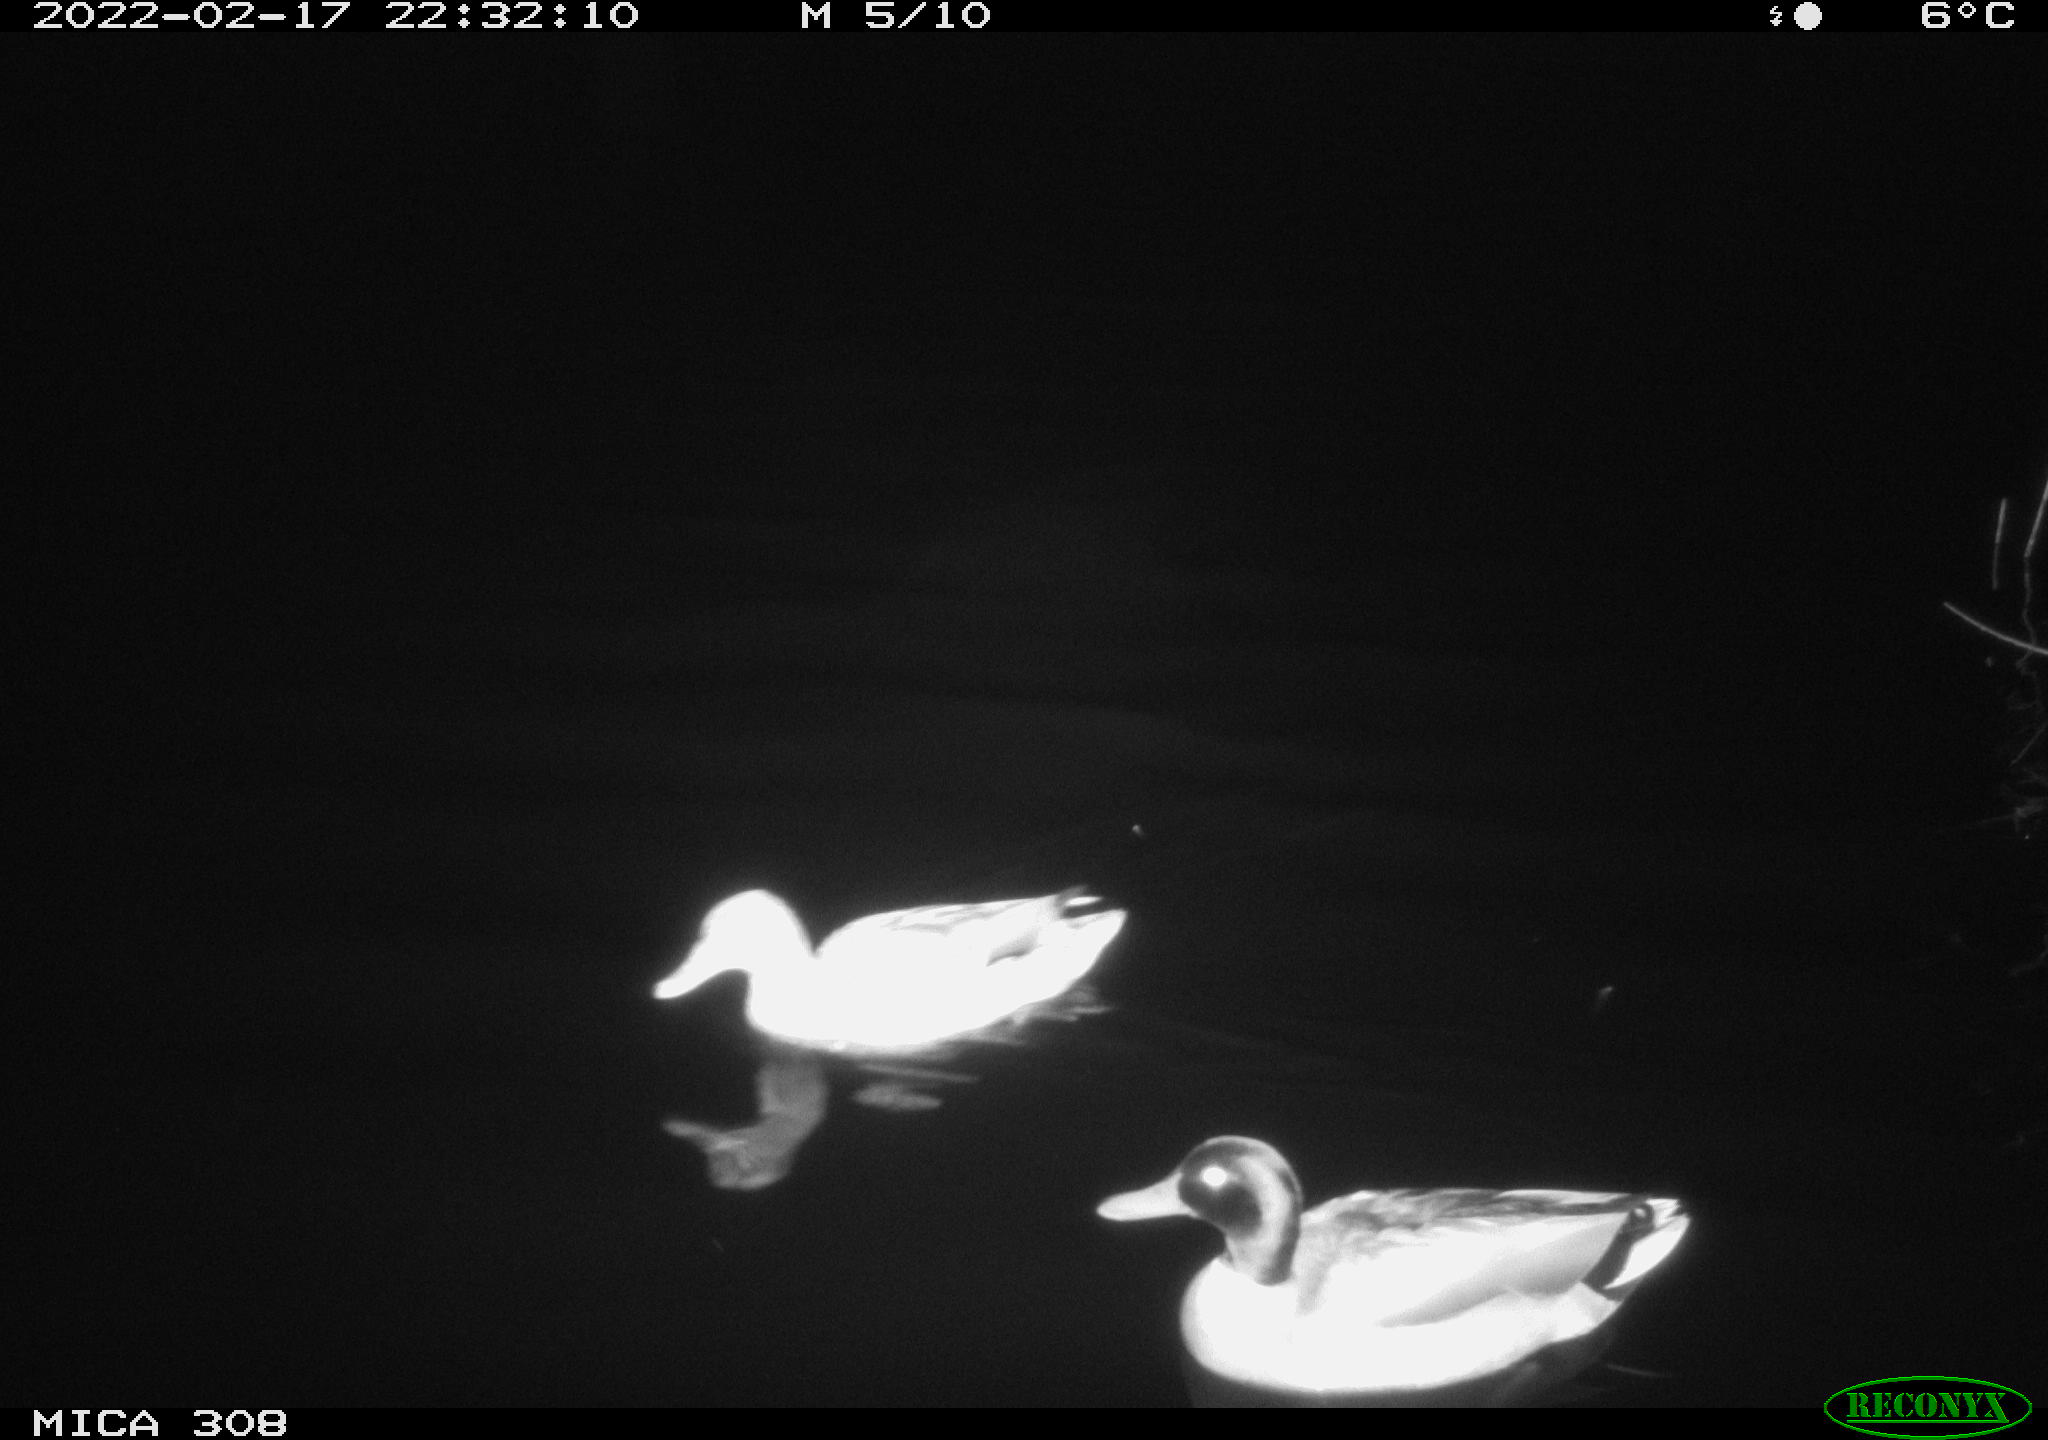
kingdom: Animalia
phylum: Chordata
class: Aves
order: Anseriformes
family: Anatidae
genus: Anas
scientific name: Anas platyrhynchos
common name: Mallard
